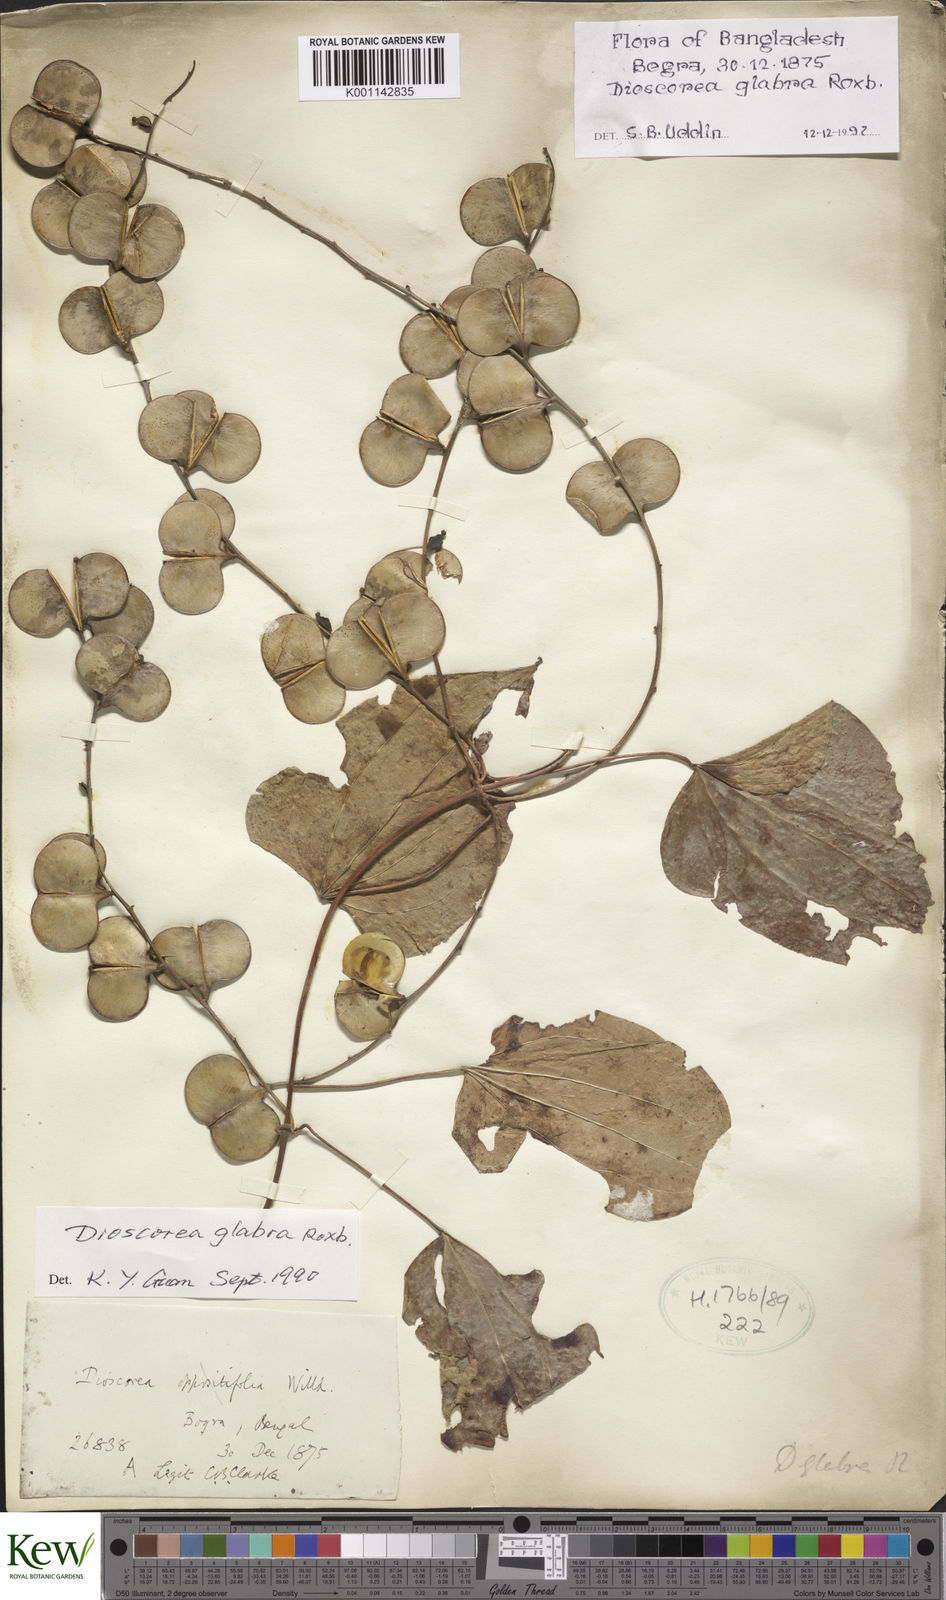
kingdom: Plantae
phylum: Tracheophyta
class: Liliopsida
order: Dioscoreales
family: Dioscoreaceae
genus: Dioscorea
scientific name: Dioscorea glabra
